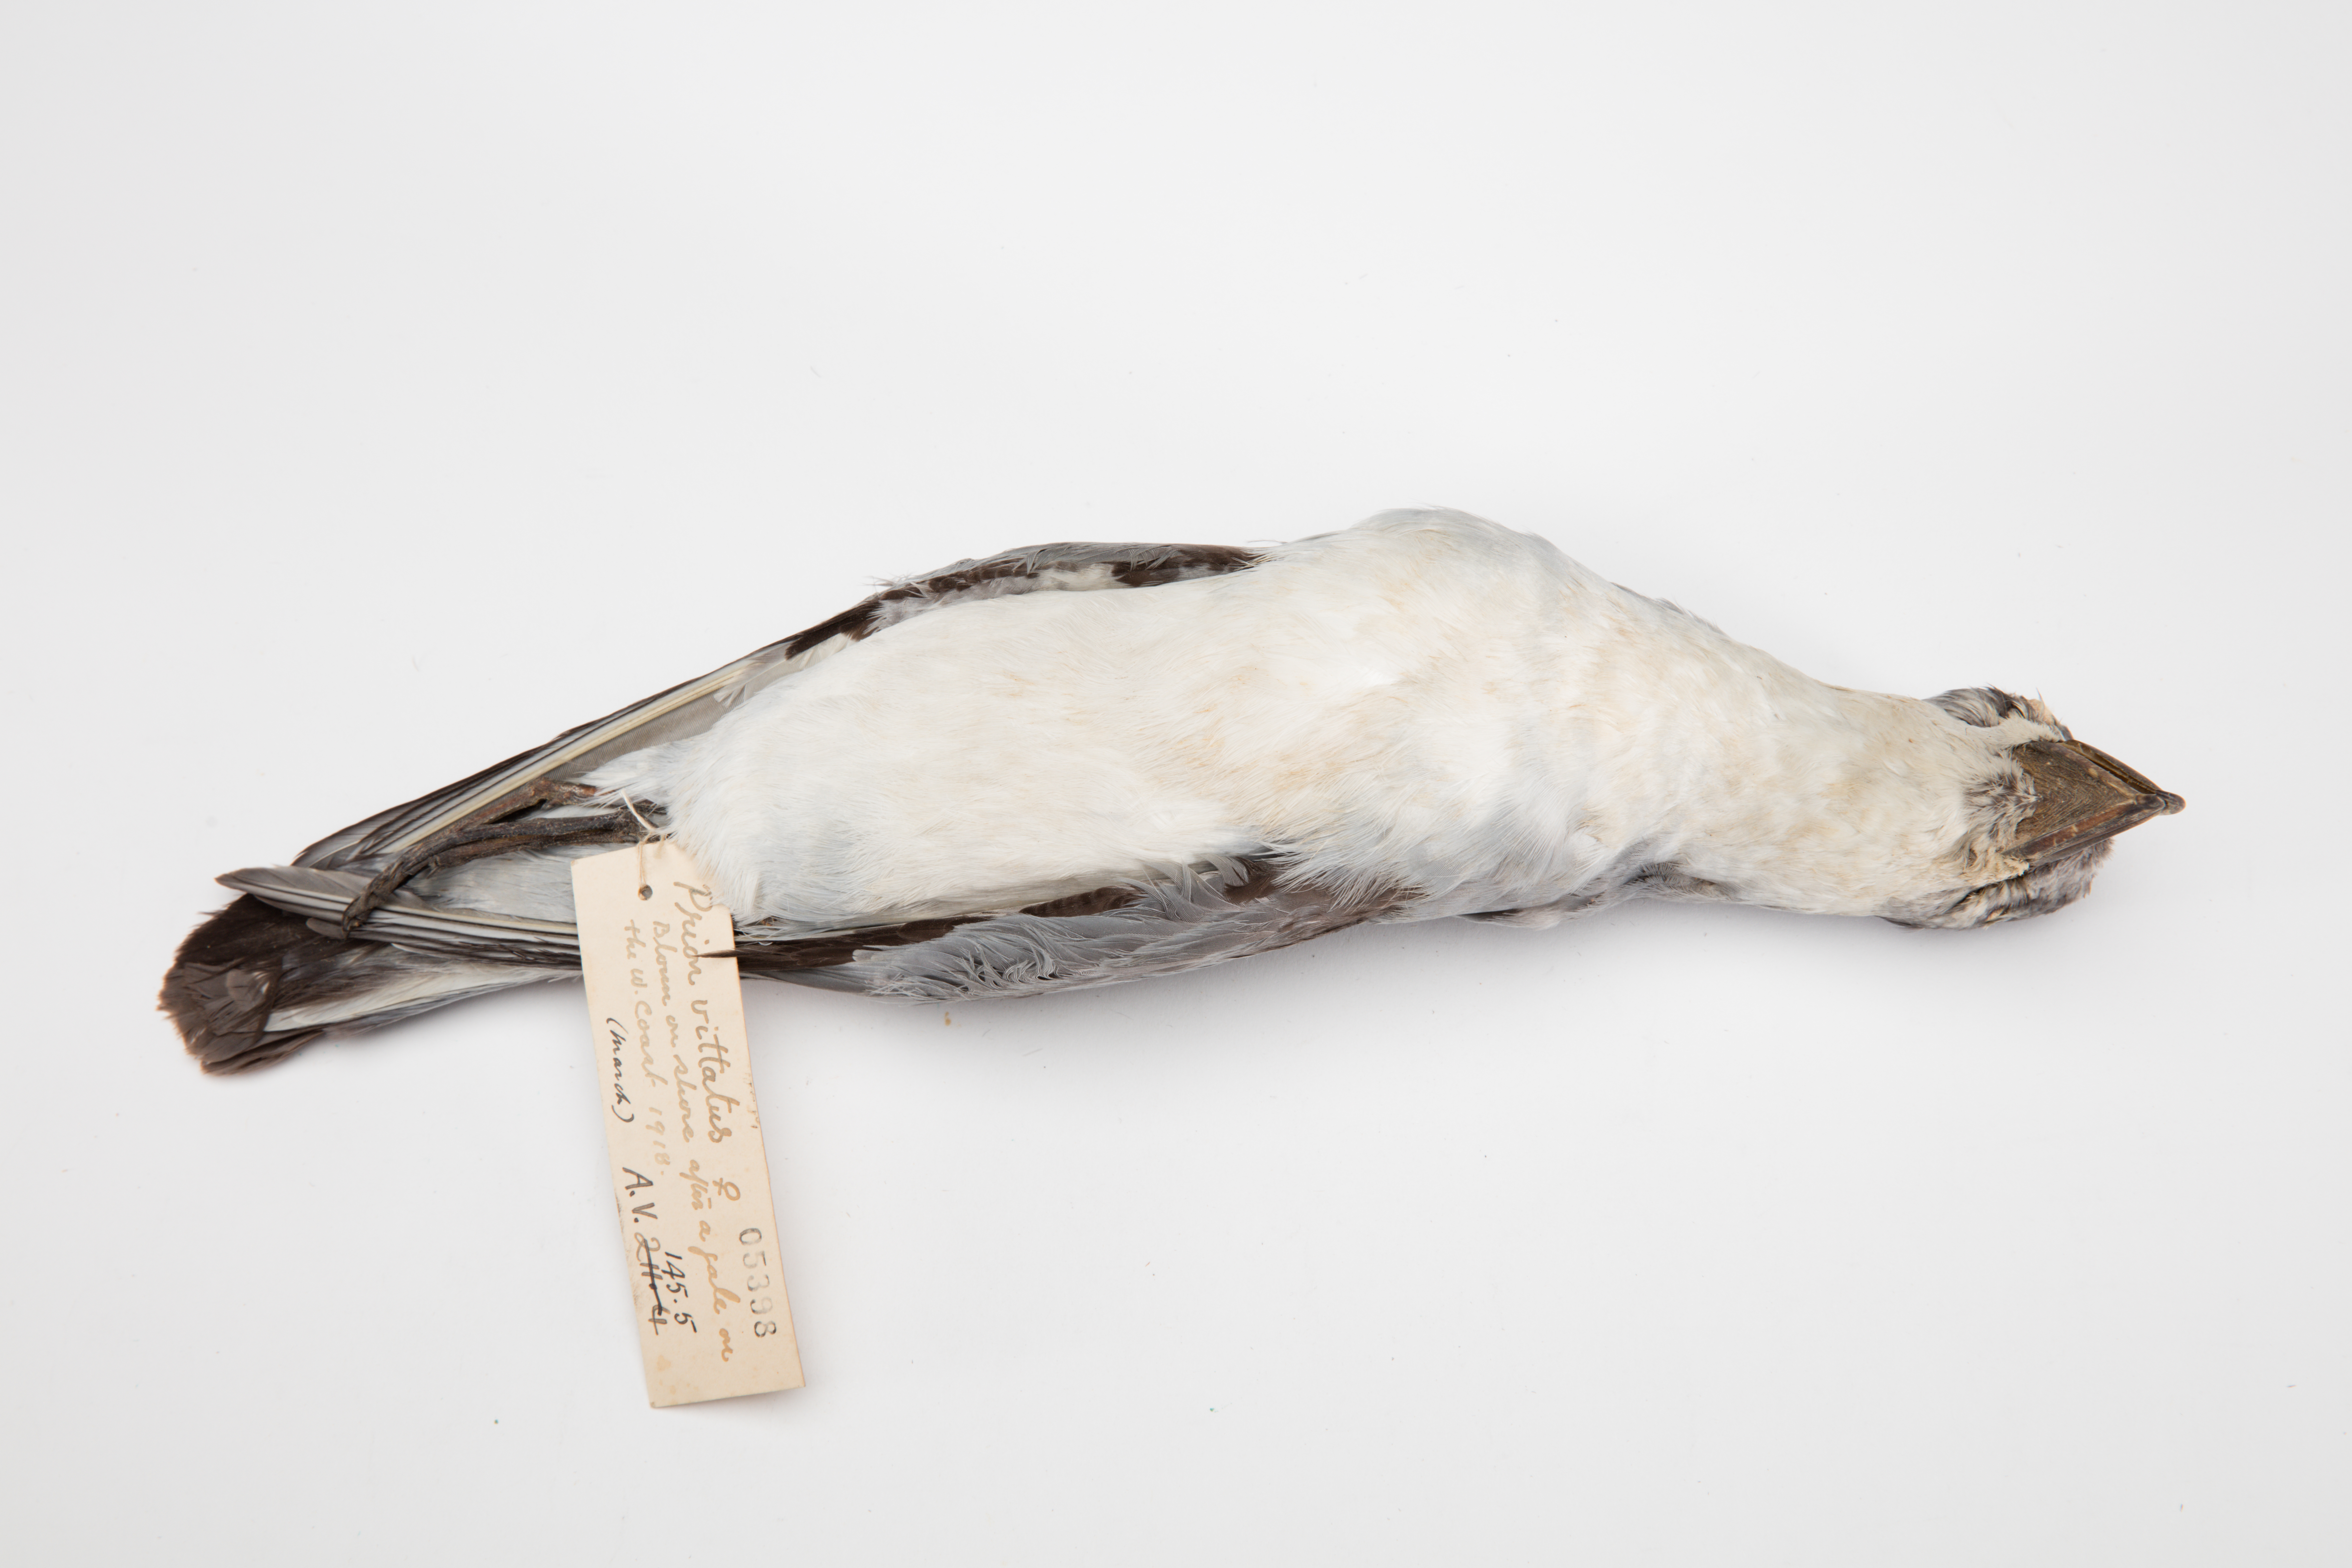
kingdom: Animalia
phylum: Chordata
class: Aves
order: Procellariiformes
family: Procellariidae
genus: Pachyptila
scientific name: Pachyptila vittata
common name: Broad-billed prion
